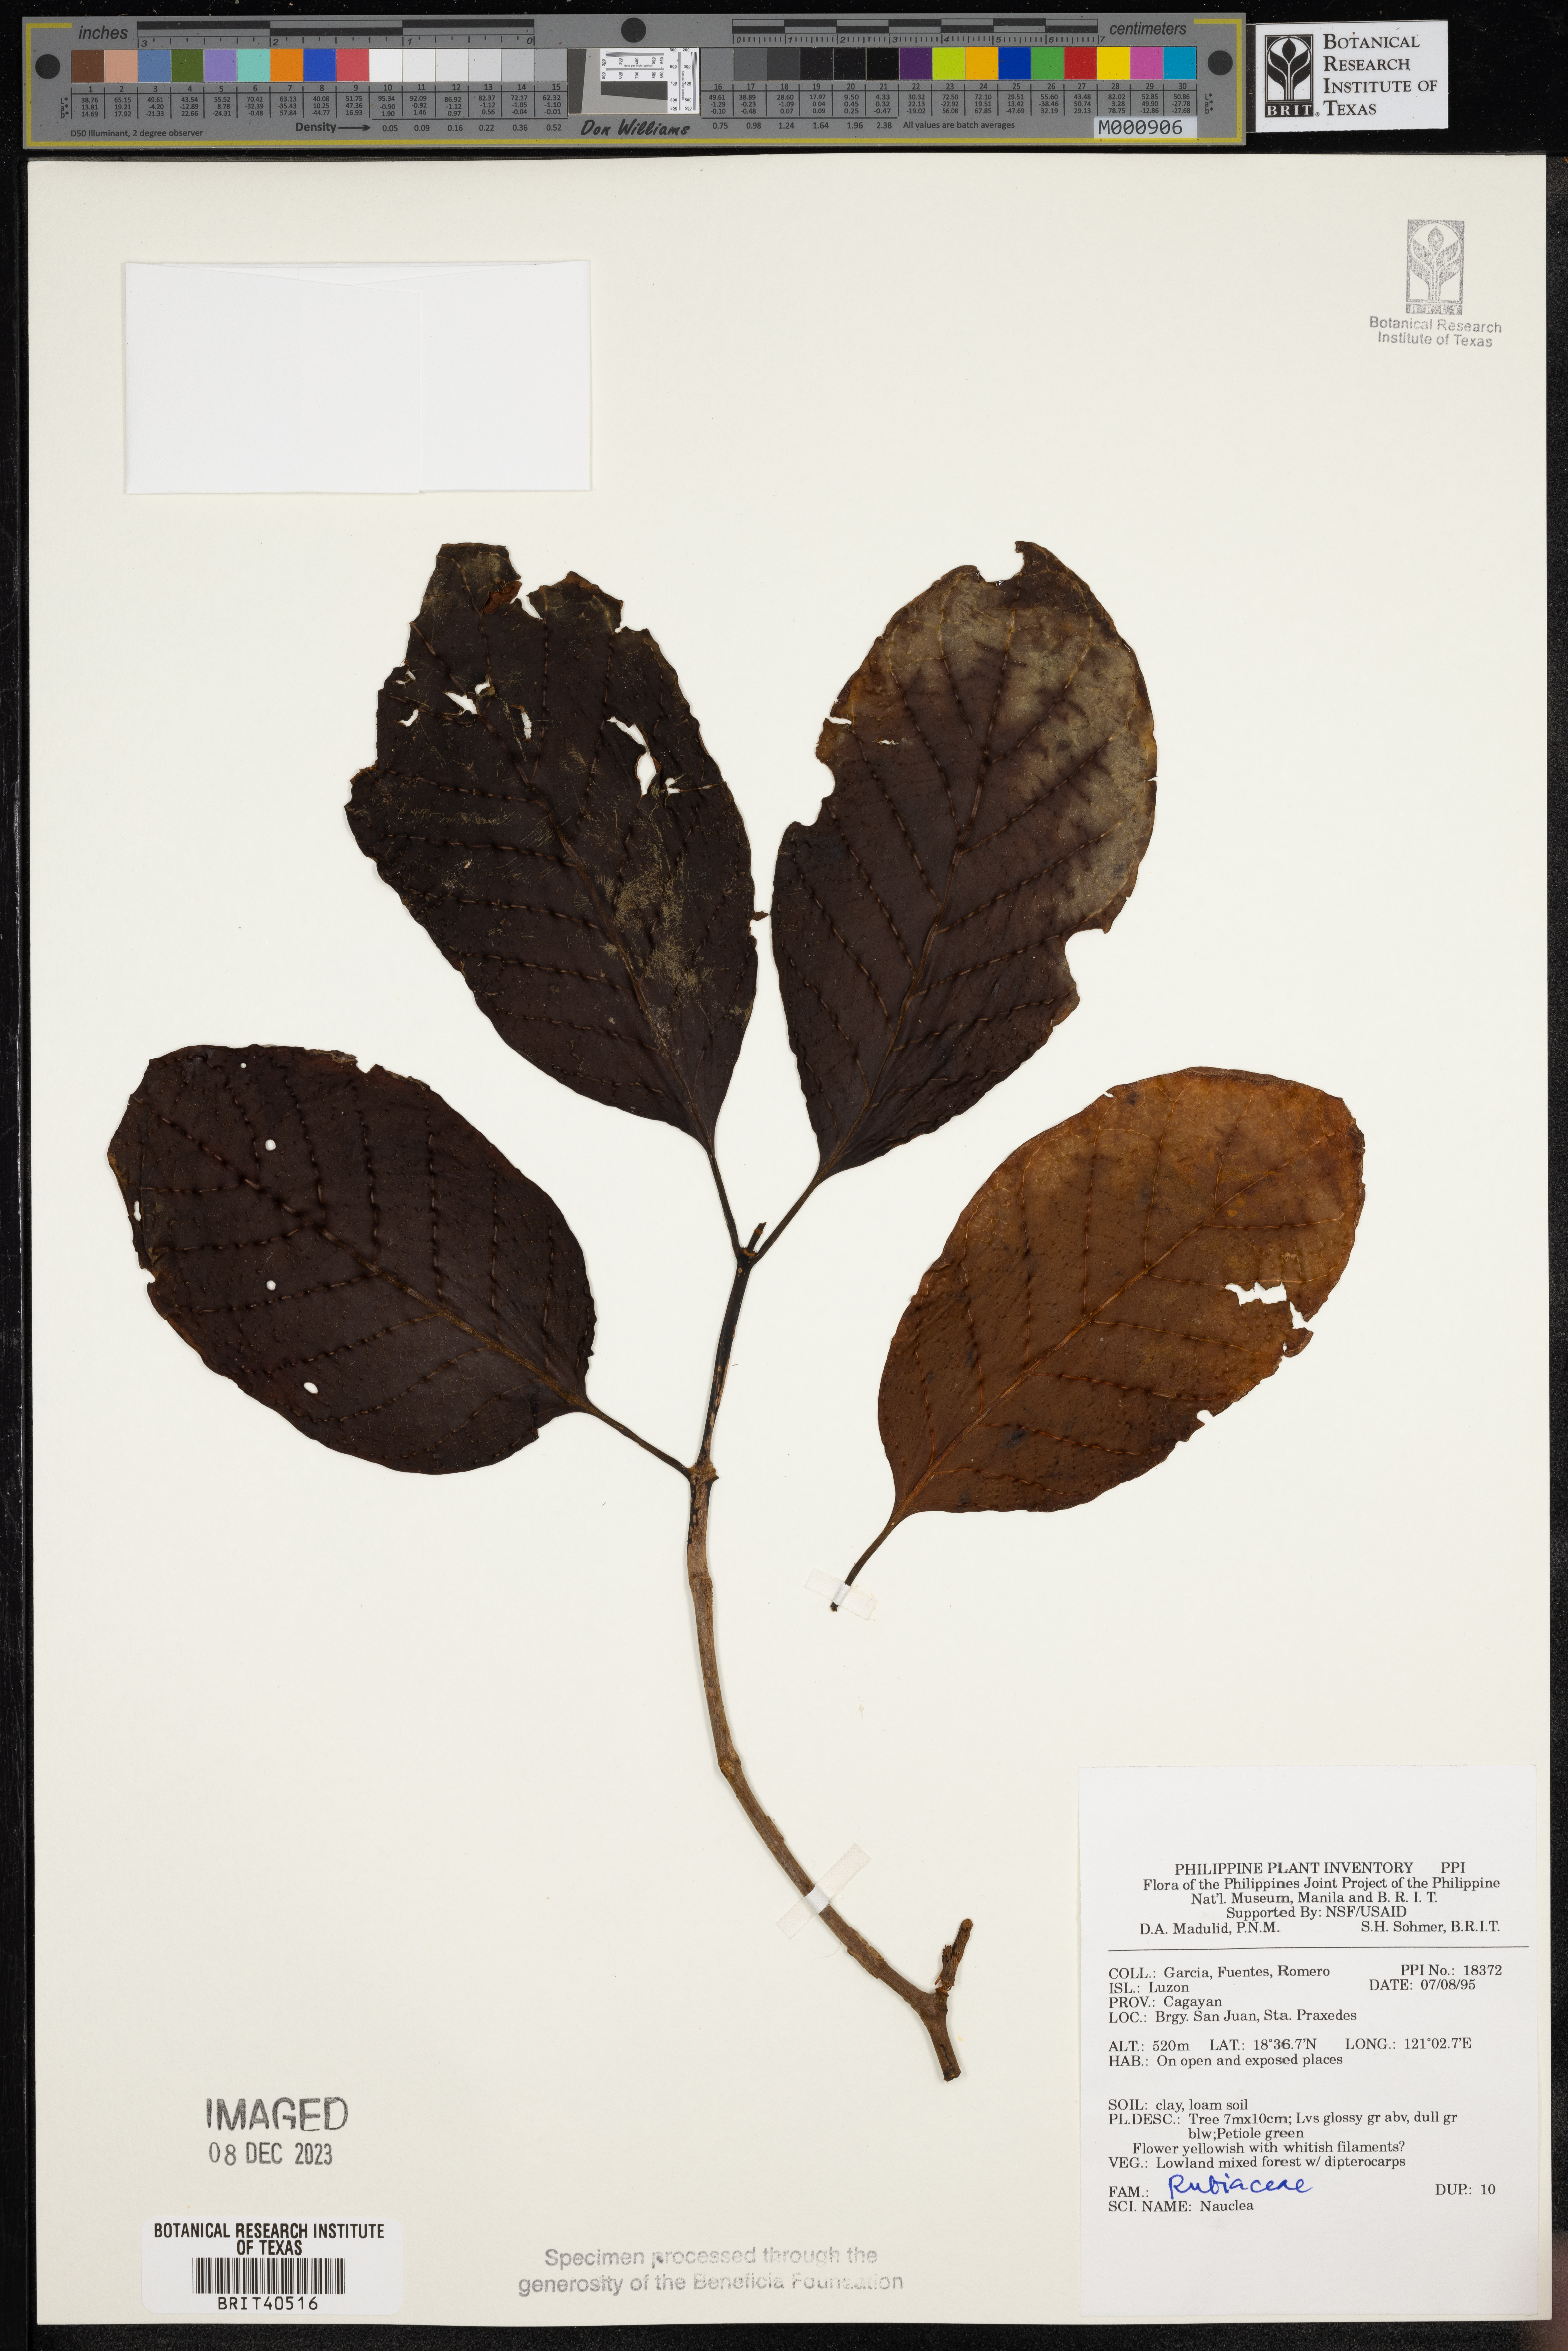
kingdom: Plantae
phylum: Tracheophyta
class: Magnoliopsida
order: Gentianales
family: Rubiaceae
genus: Nauclea
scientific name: Nauclea
